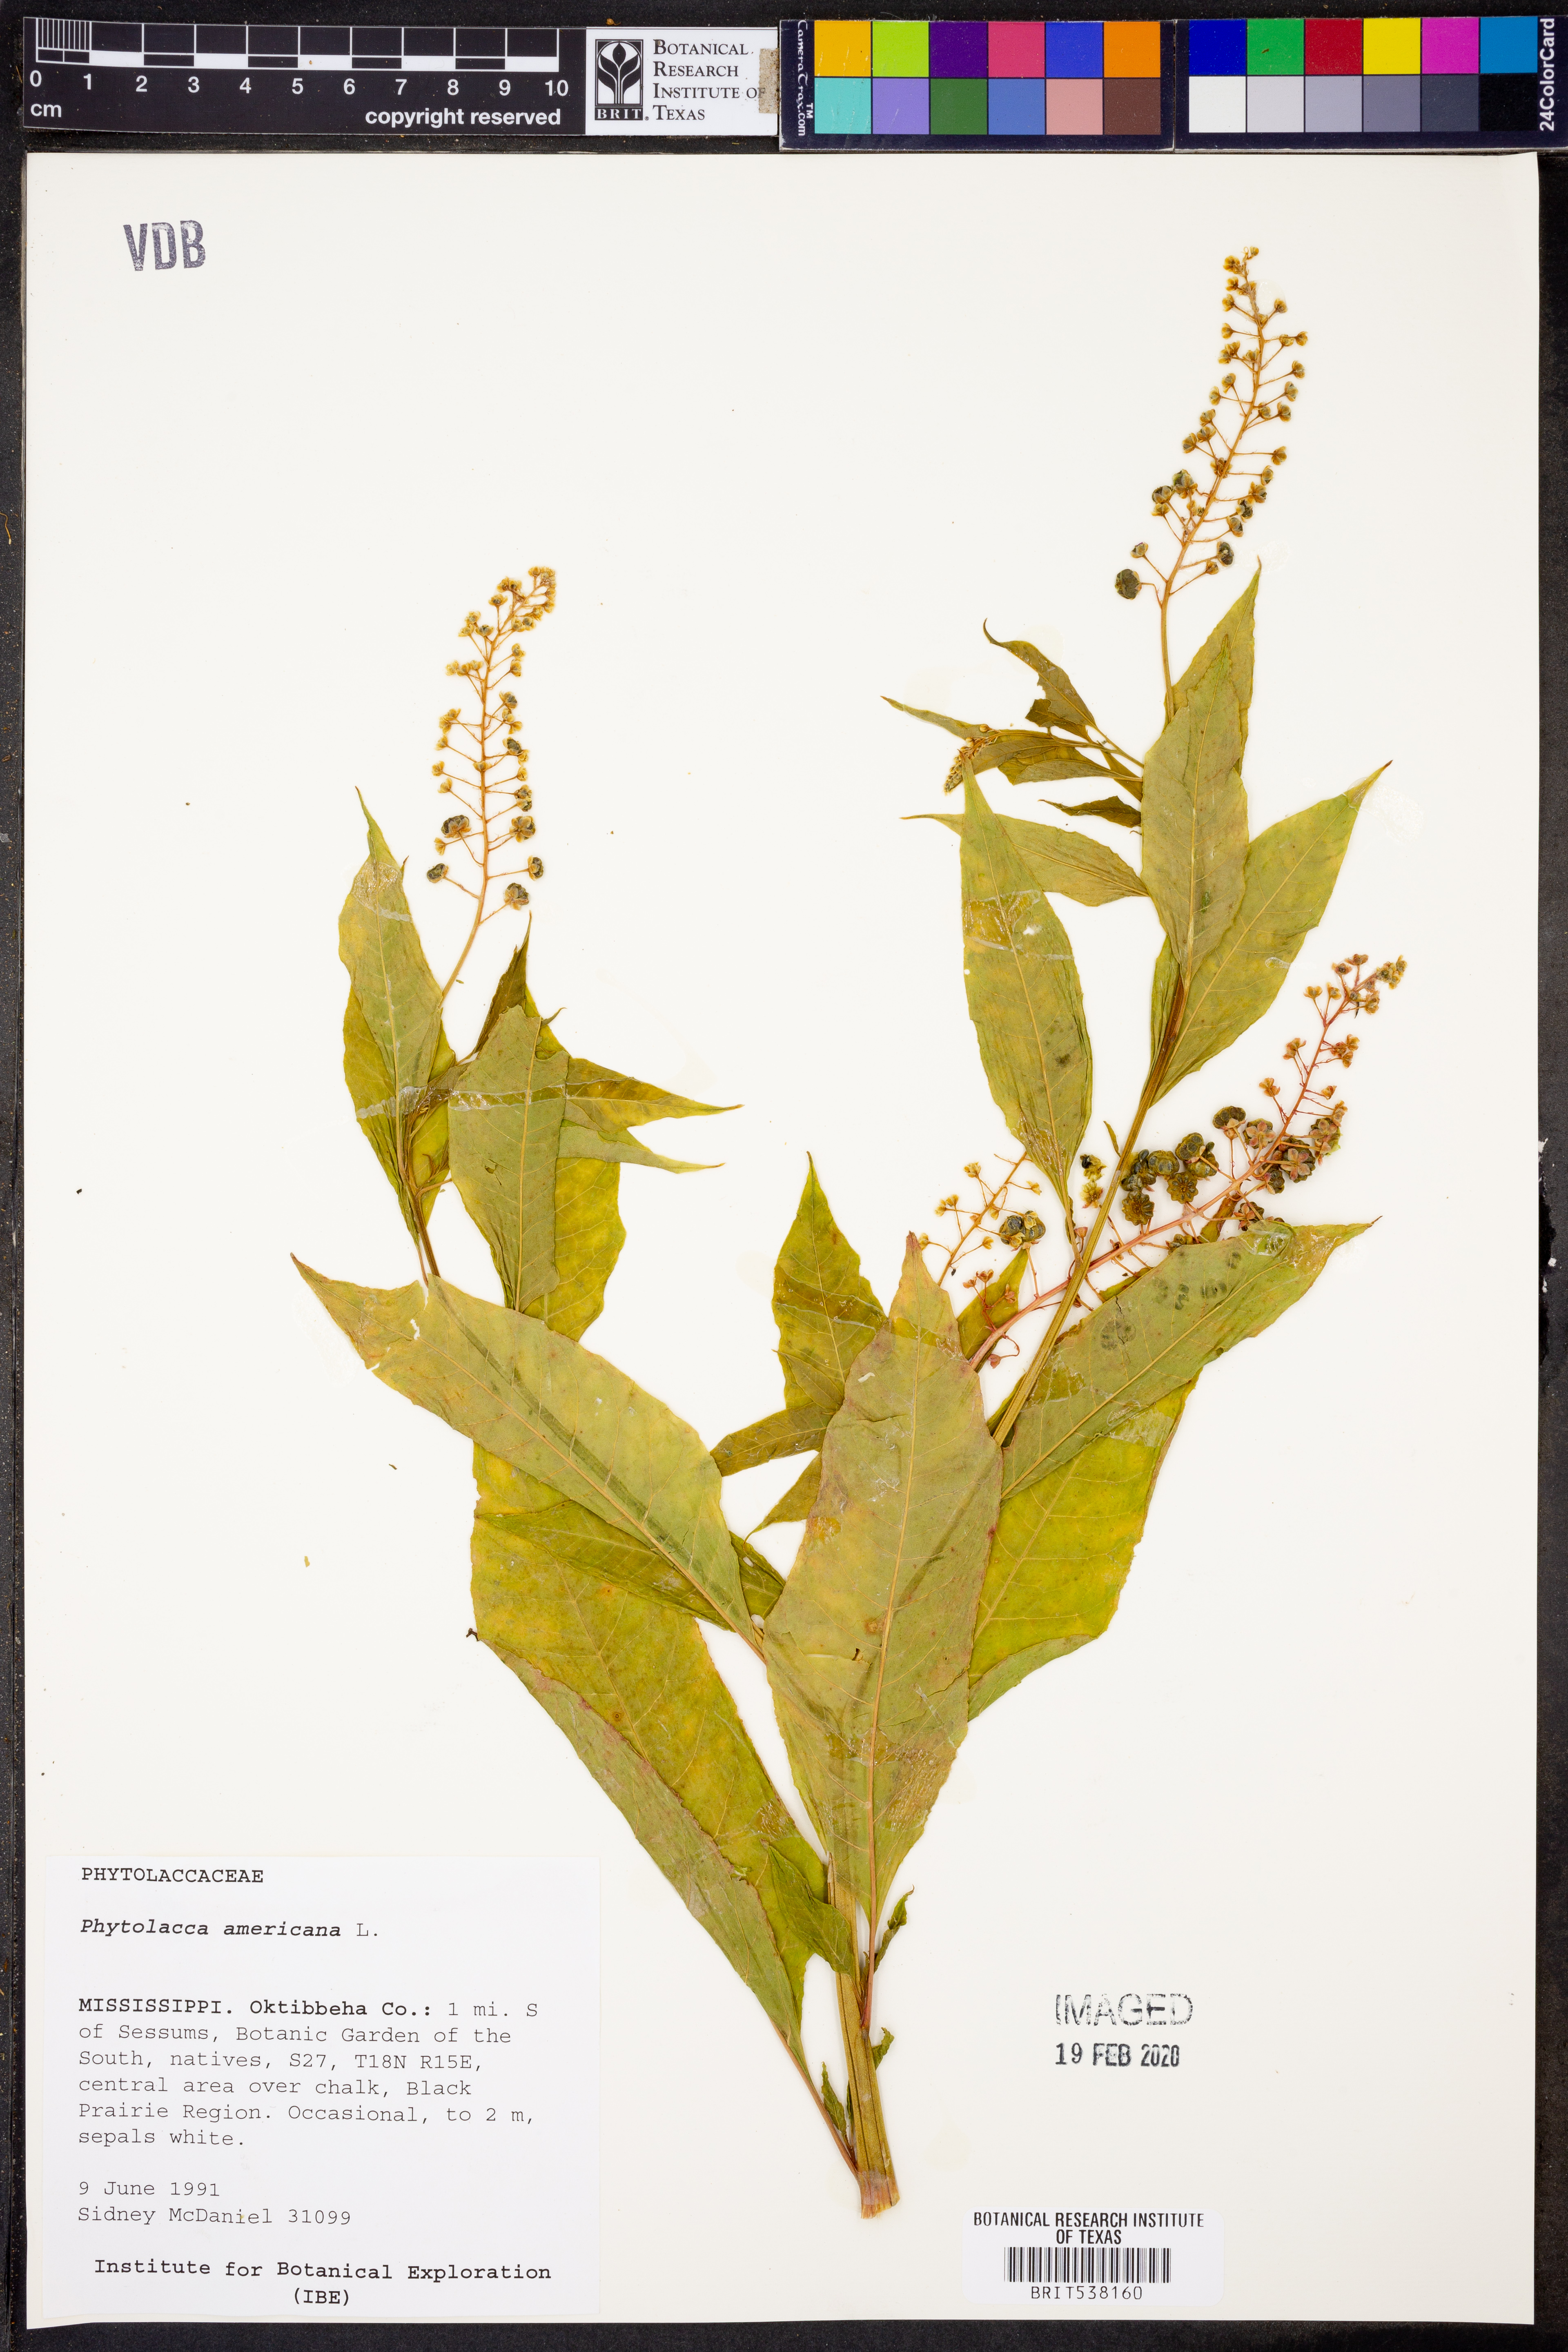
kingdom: Plantae
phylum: Tracheophyta
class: Magnoliopsida
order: Caryophyllales
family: Phytolaccaceae
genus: Phytolacca
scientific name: Phytolacca americana
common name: American pokeweed
